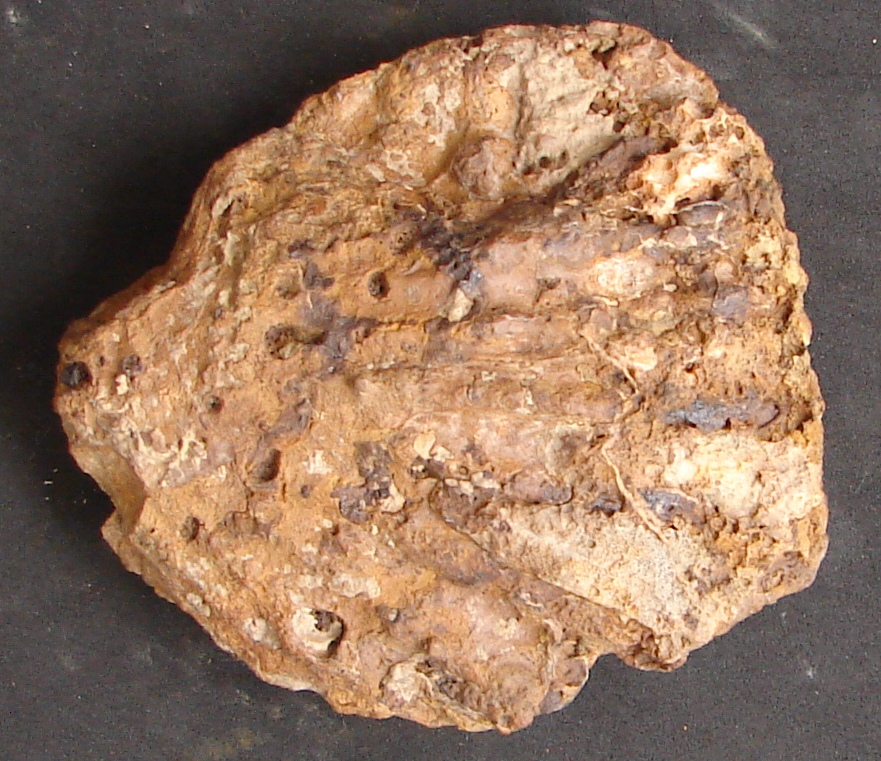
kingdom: Animalia
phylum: Mollusca
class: Bivalvia
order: Ostreida
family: Ostreidae
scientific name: Ostreidae
